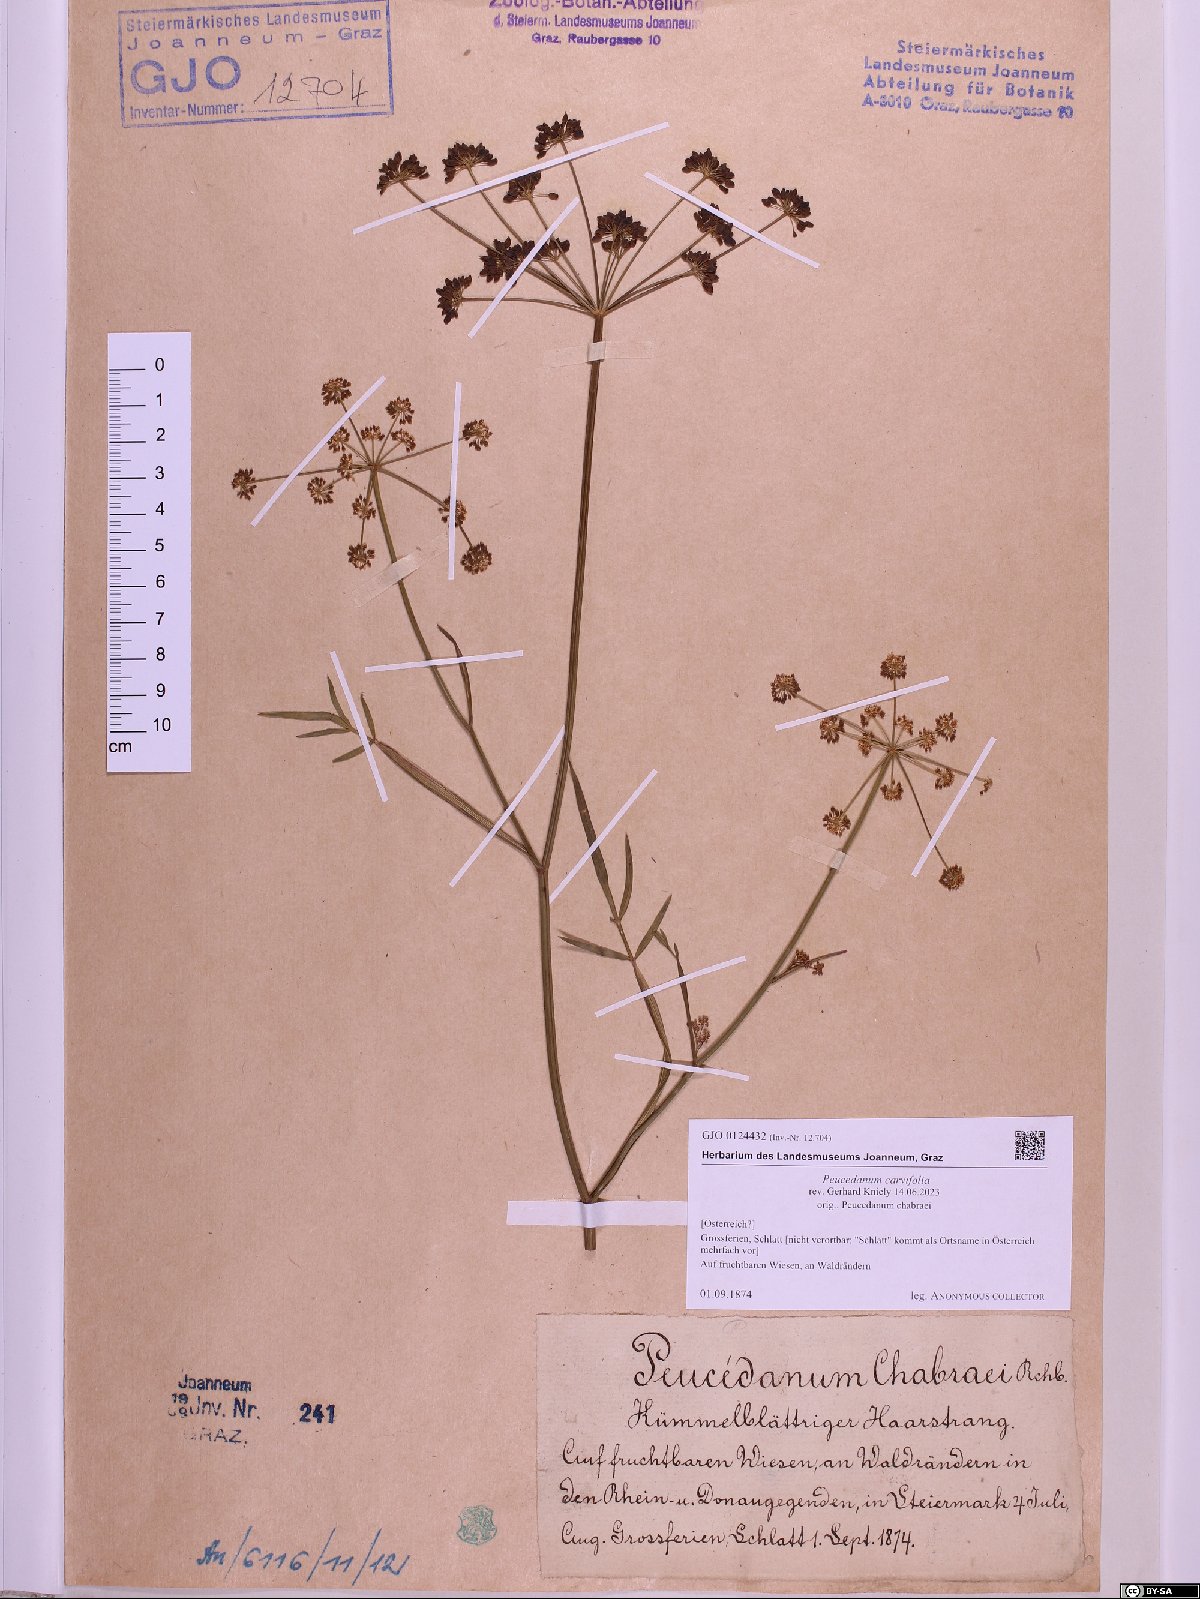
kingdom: Plantae
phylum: Tracheophyta
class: Magnoliopsida
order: Apiales
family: Apiaceae
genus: Dichoropetalum
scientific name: Dichoropetalum carvifolia
